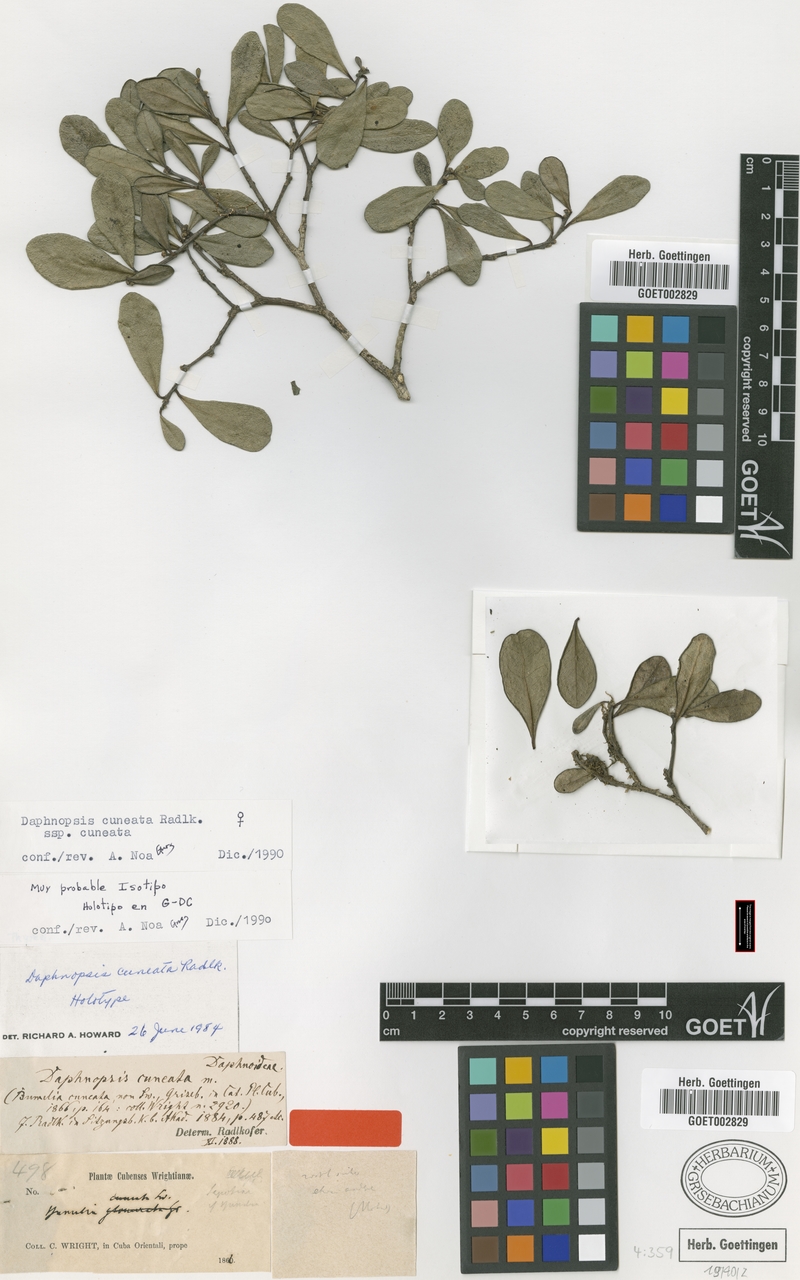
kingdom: Plantae
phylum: Tracheophyta
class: Magnoliopsida
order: Malvales
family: Thymelaeaceae
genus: Daphnopsis
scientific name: Daphnopsis cuneata
